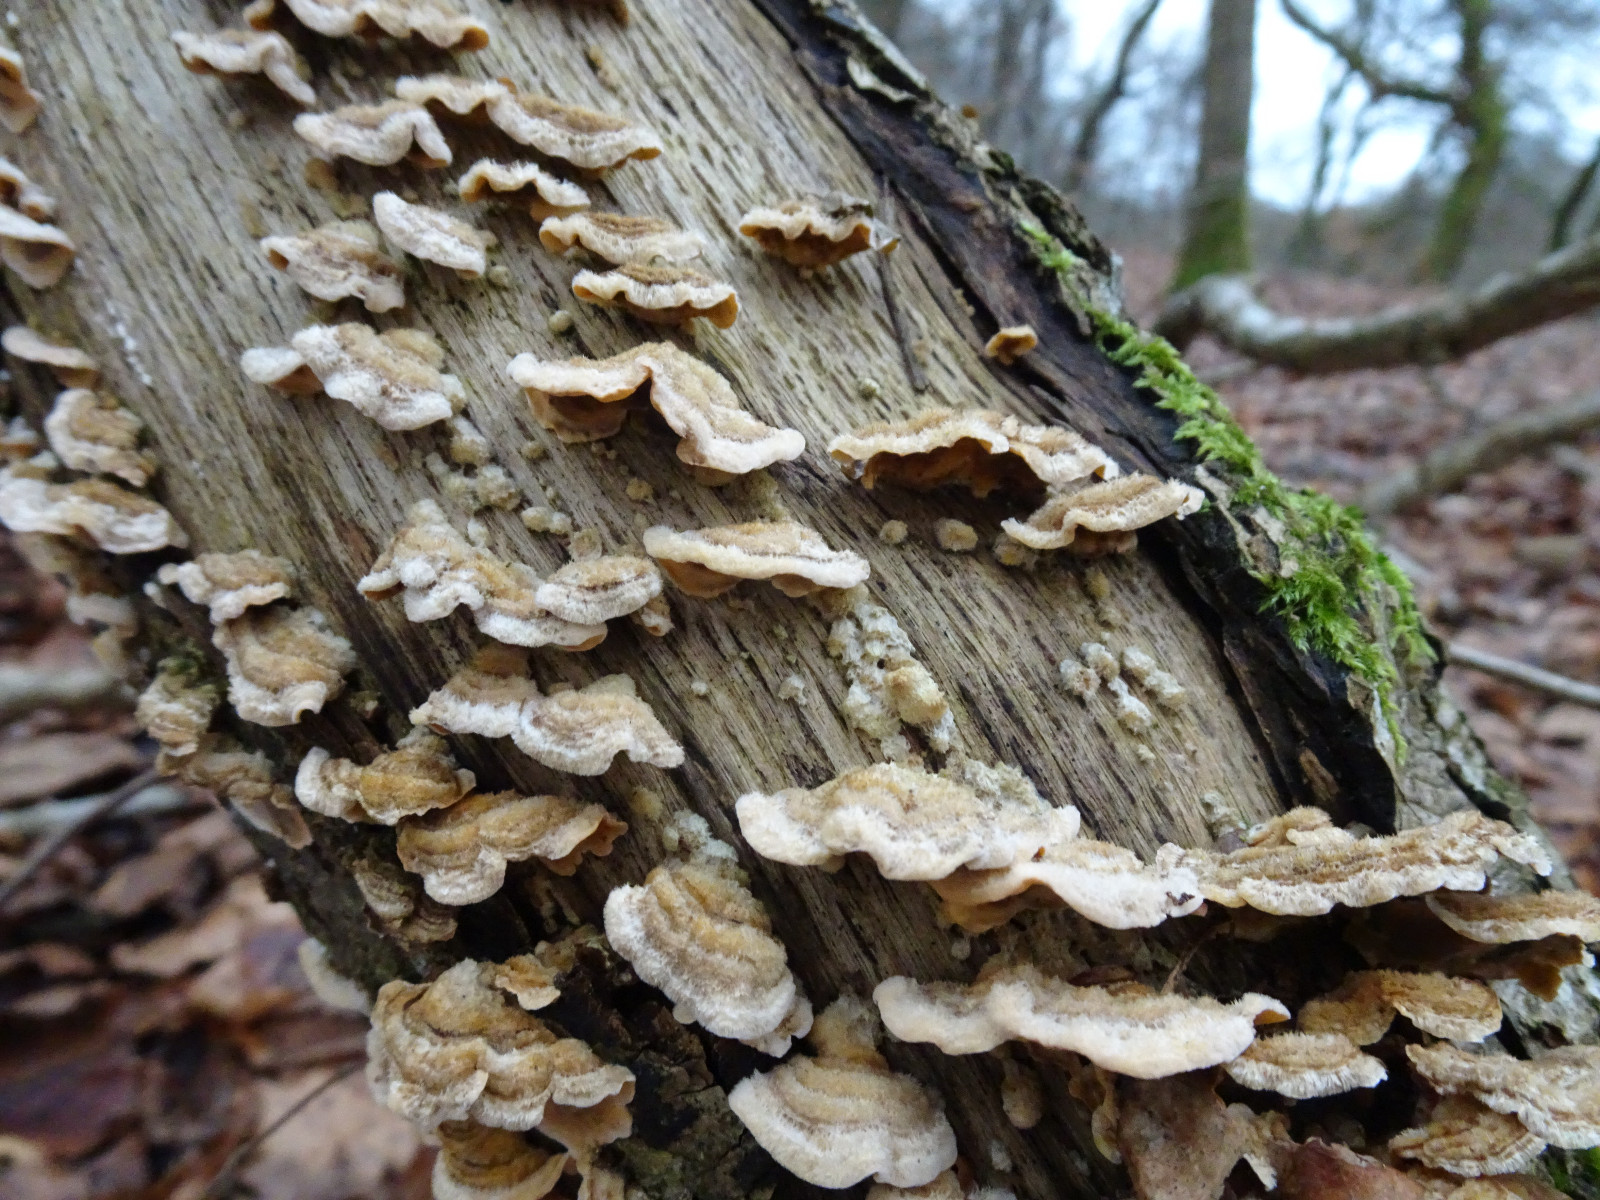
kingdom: Fungi
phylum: Basidiomycota
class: Agaricomycetes
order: Russulales
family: Stereaceae
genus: Stereum
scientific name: Stereum hirsutum
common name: håret lædersvamp
